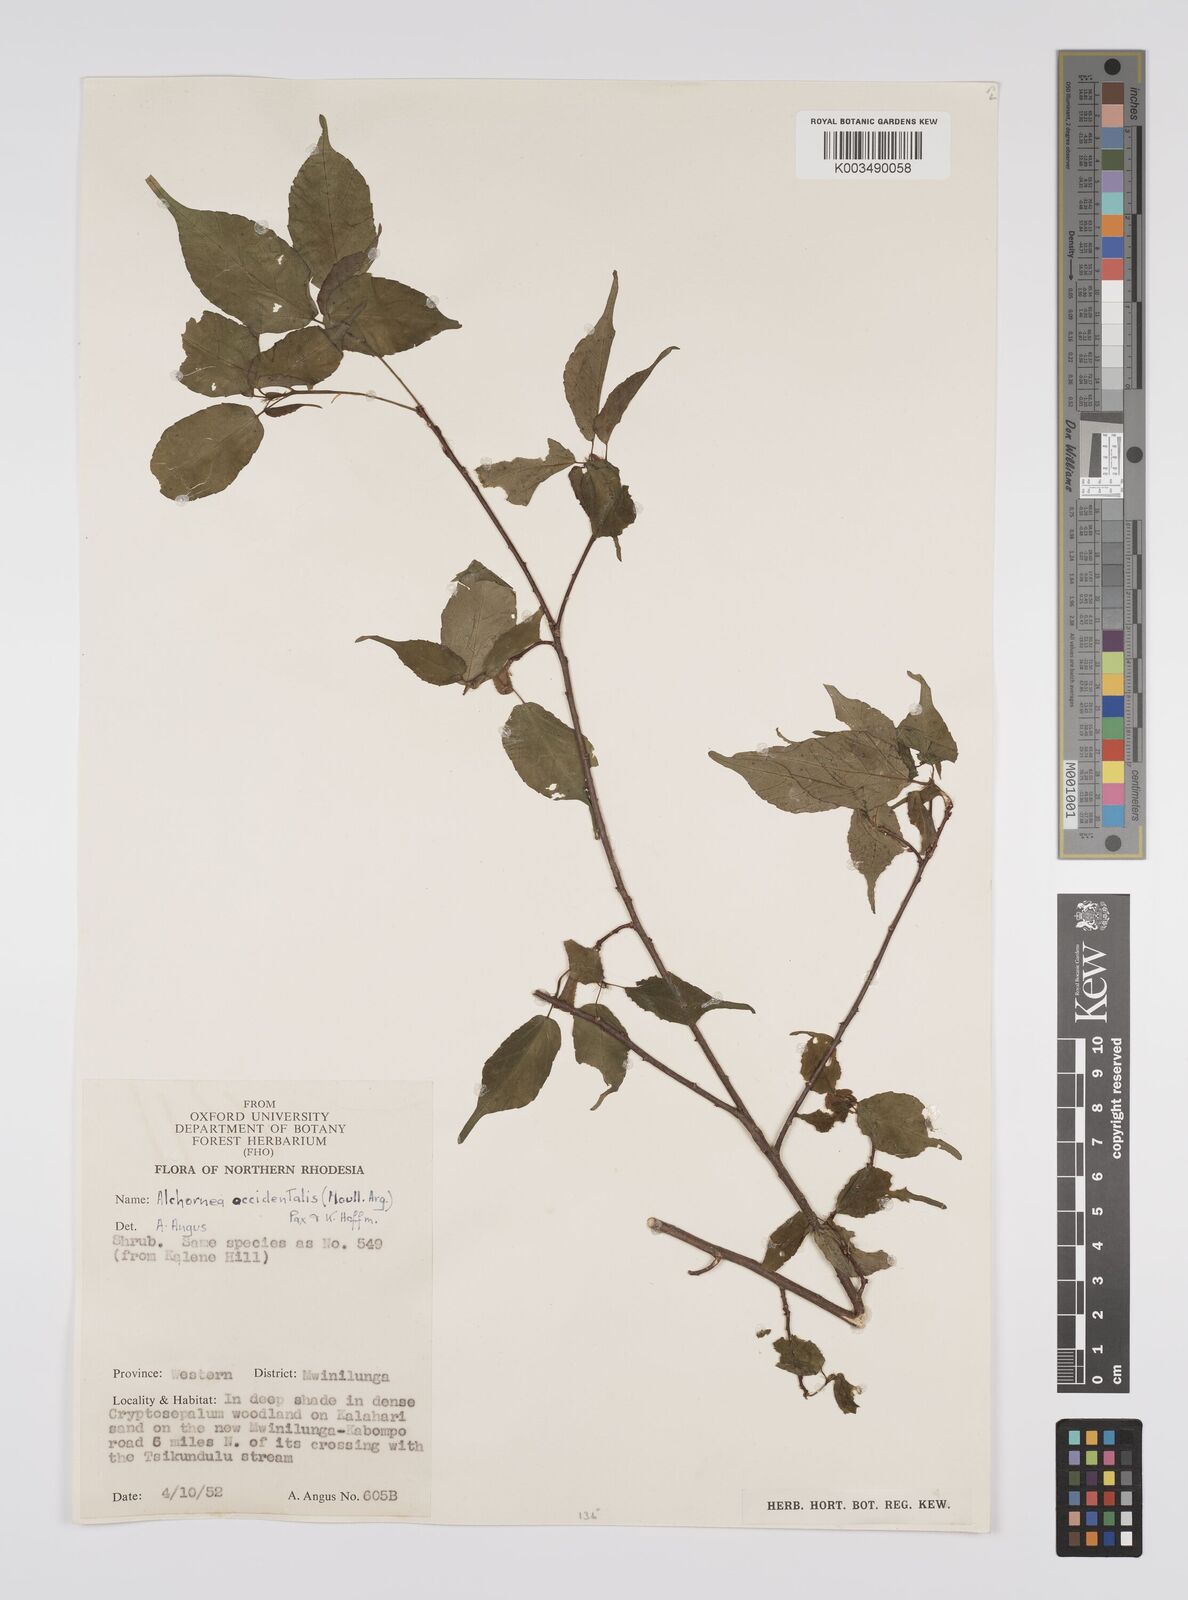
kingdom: Plantae
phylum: Tracheophyta
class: Magnoliopsida
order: Malpighiales
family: Euphorbiaceae
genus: Alchornea
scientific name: Alchornea occidentalis
